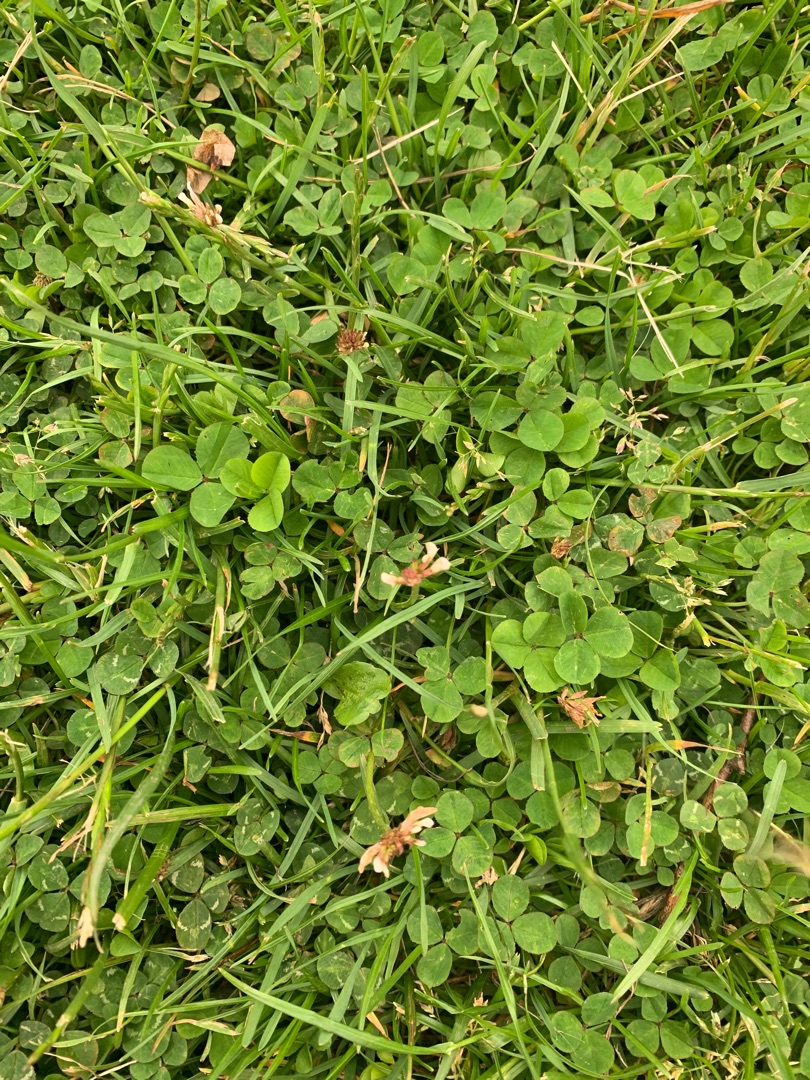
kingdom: Plantae
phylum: Tracheophyta
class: Magnoliopsida
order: Fabales
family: Fabaceae
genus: Trifolium
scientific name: Trifolium repens
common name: Hvid-kløver
